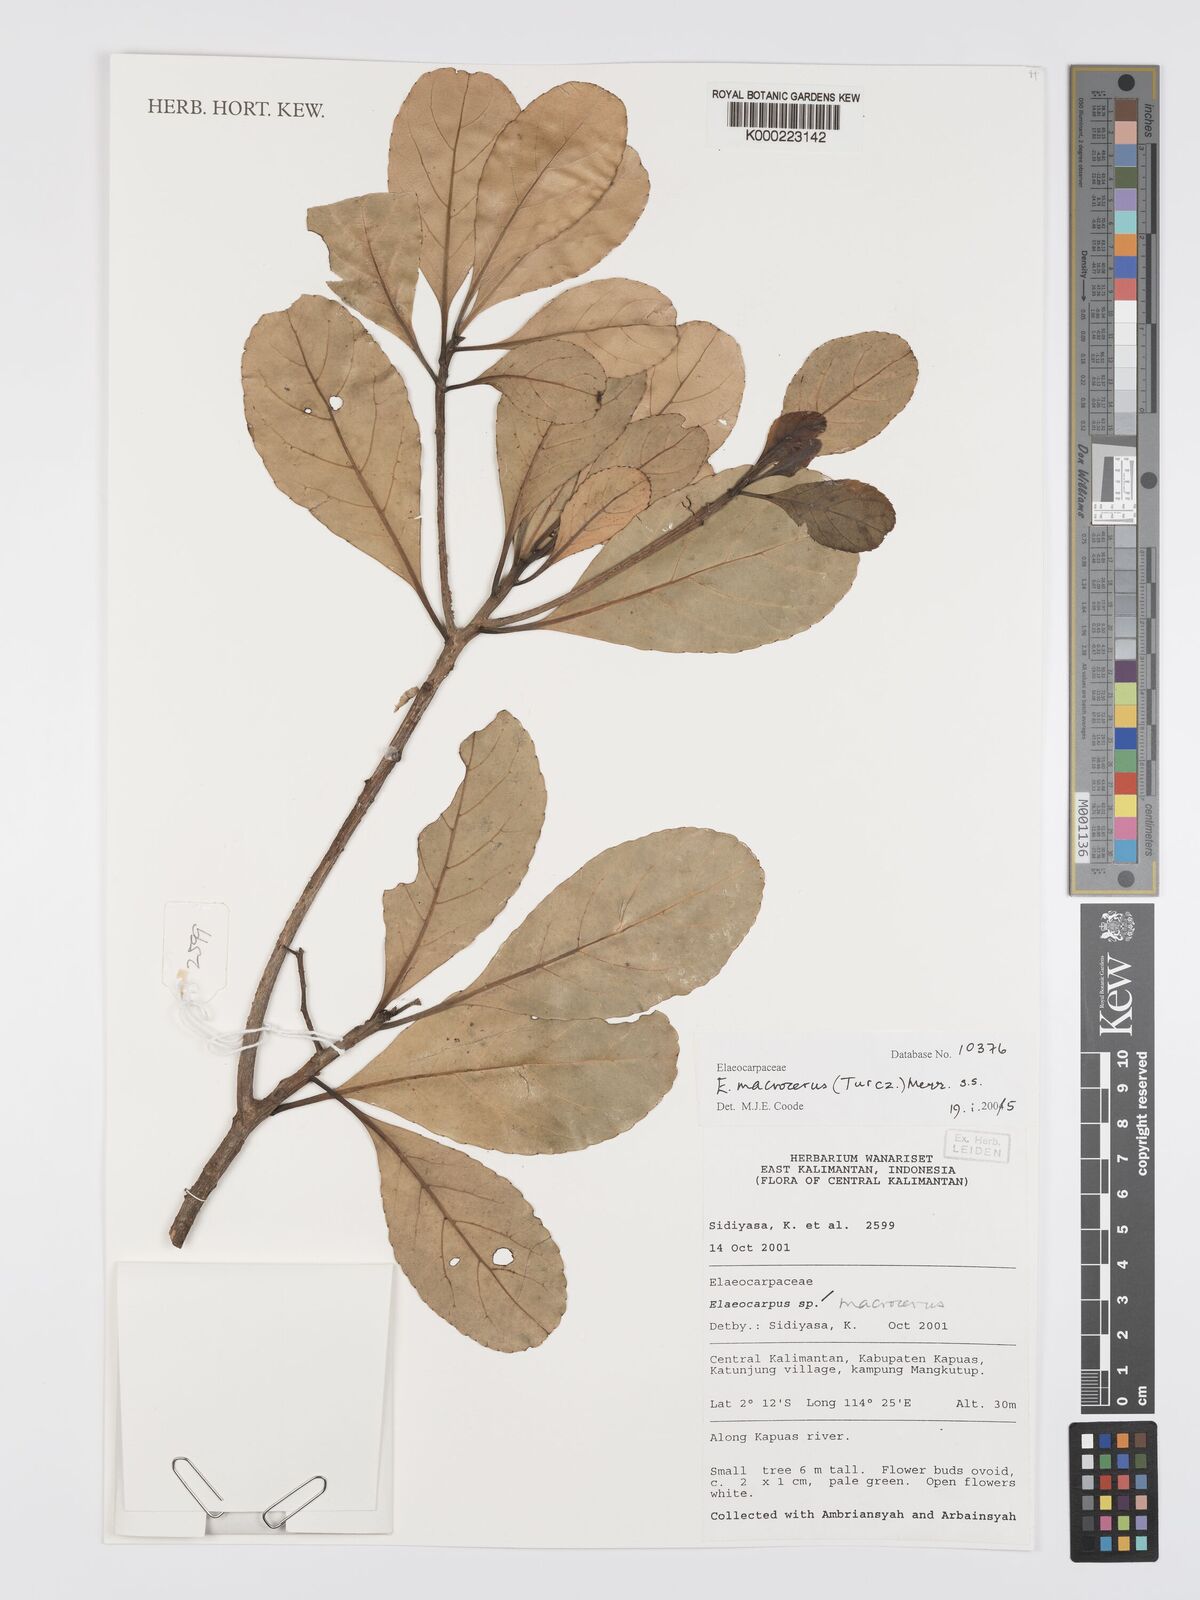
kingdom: Plantae
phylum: Tracheophyta
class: Magnoliopsida
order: Oxalidales
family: Elaeocarpaceae
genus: Elaeocarpus
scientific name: Elaeocarpus macrocerus
